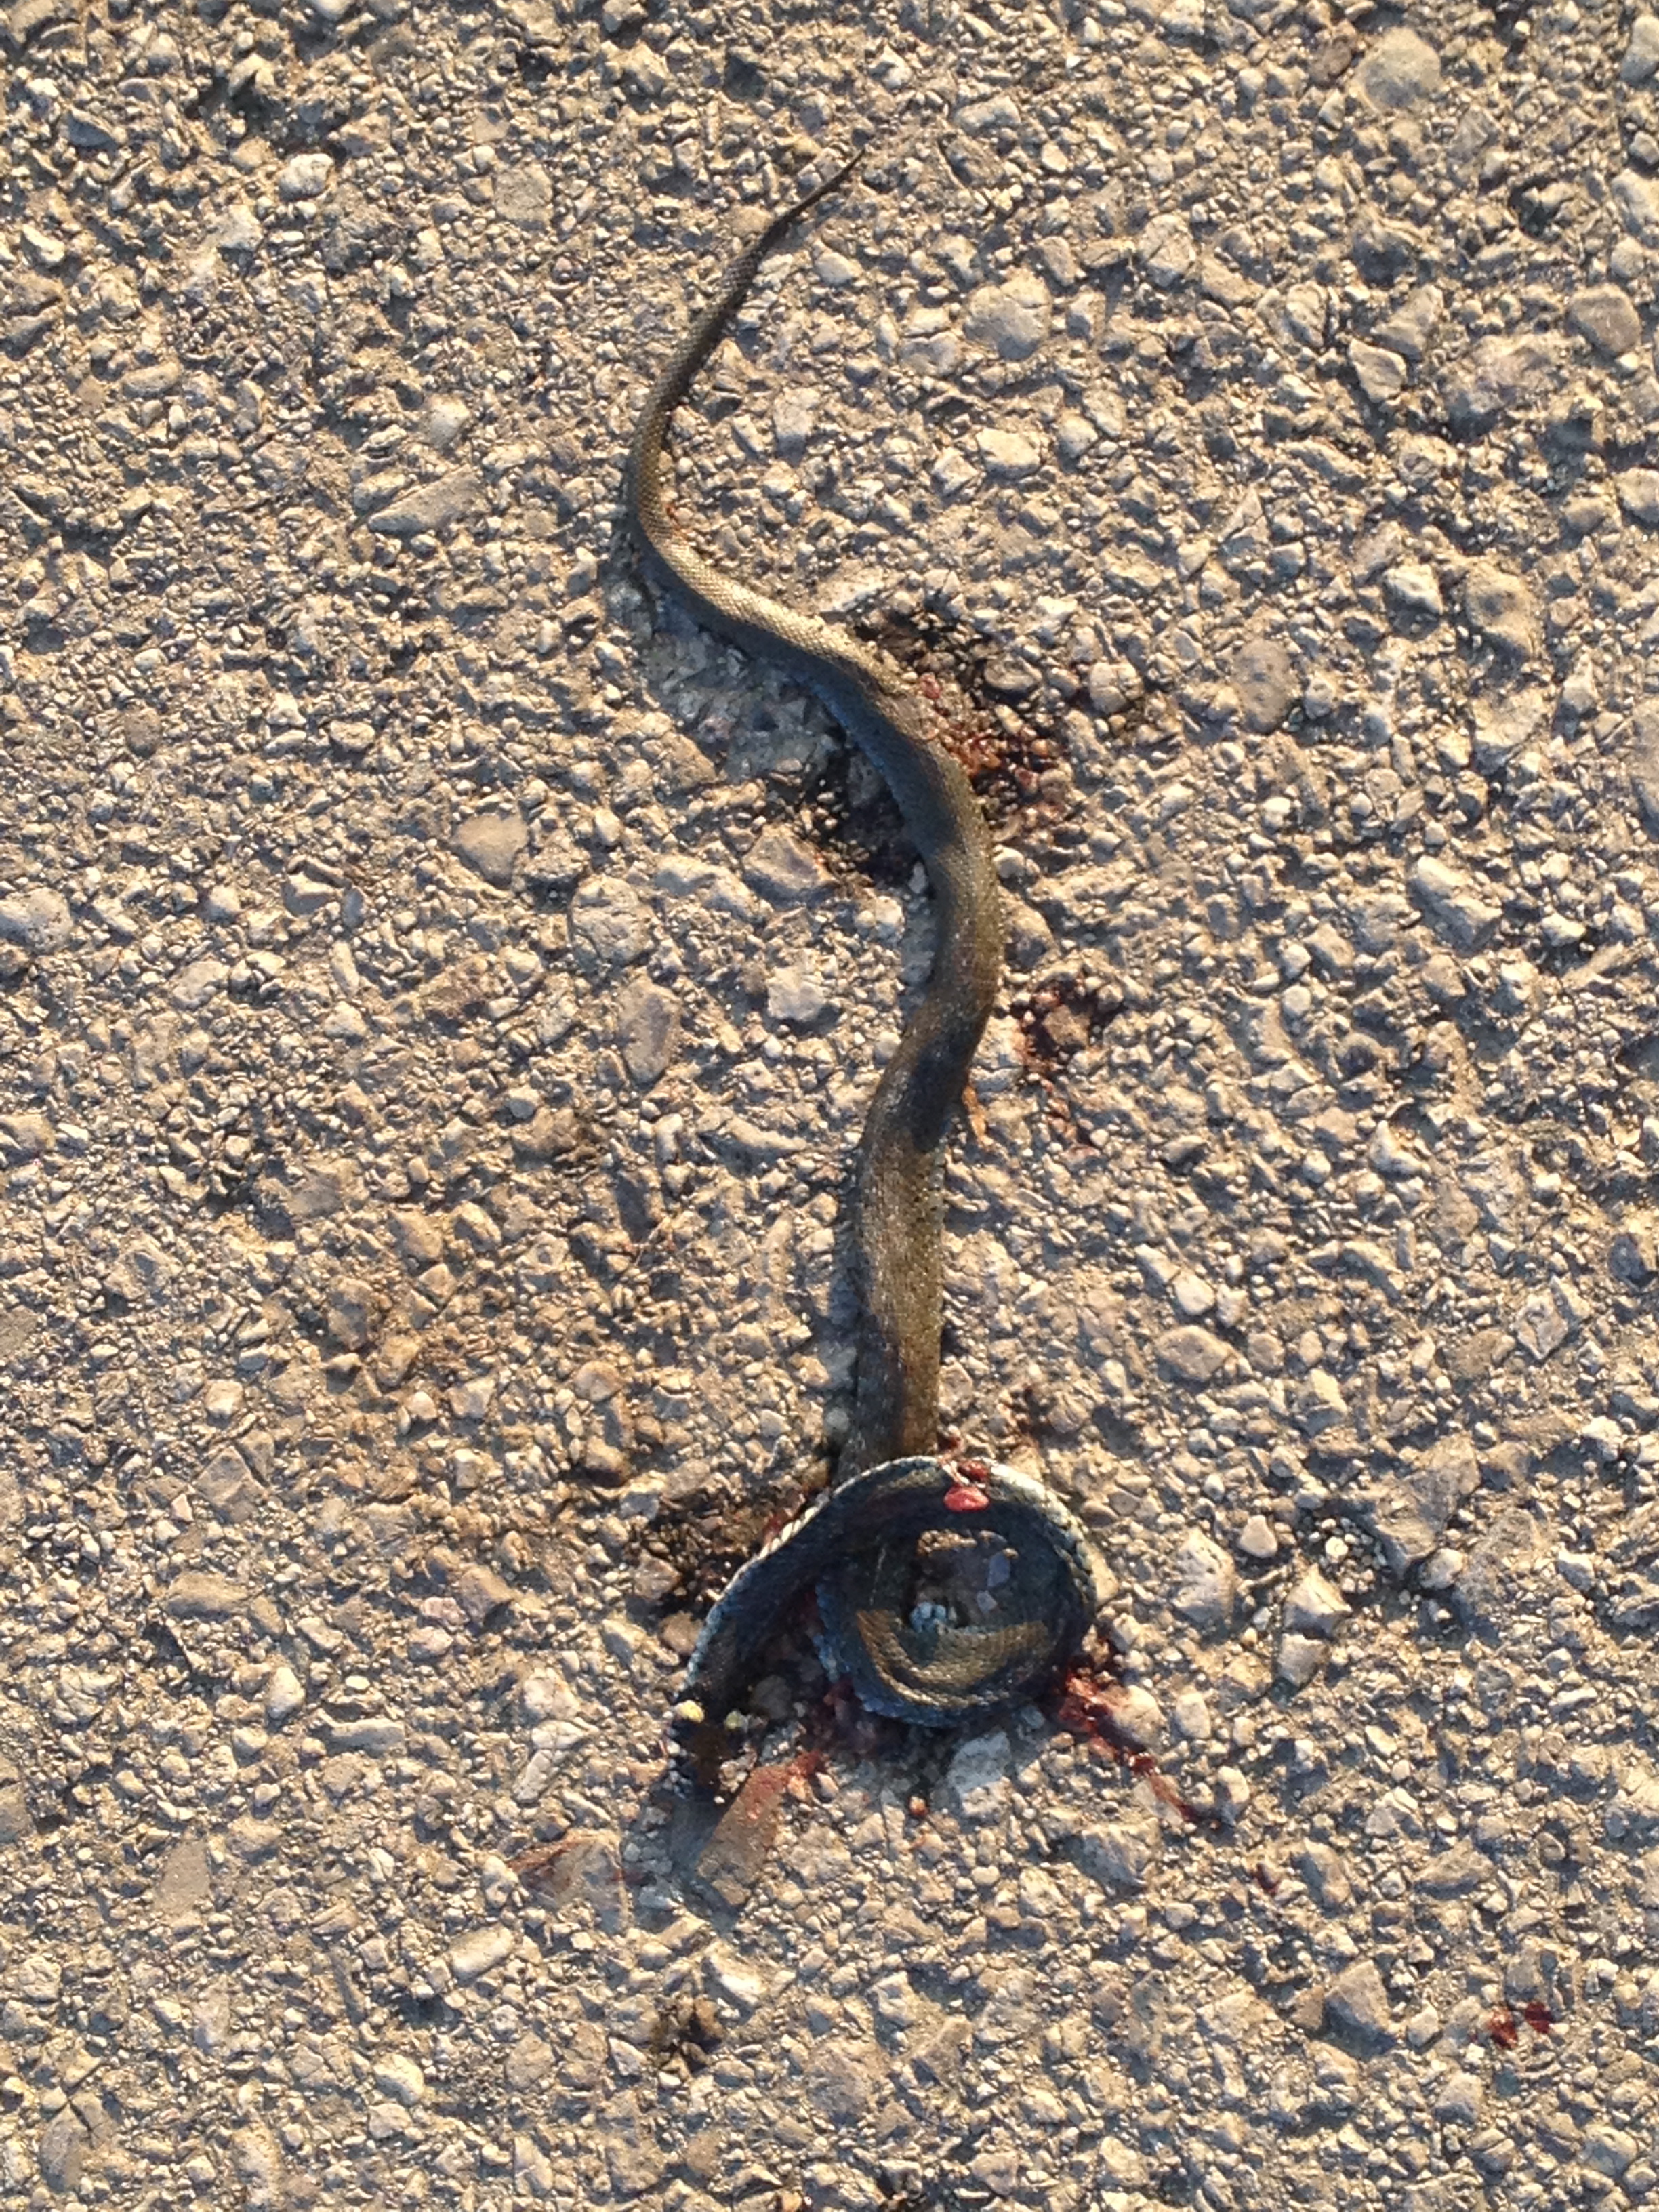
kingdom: Animalia
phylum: Chordata
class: Squamata
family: Colubridae
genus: Natrix
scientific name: Natrix natrix
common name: Grass snake
